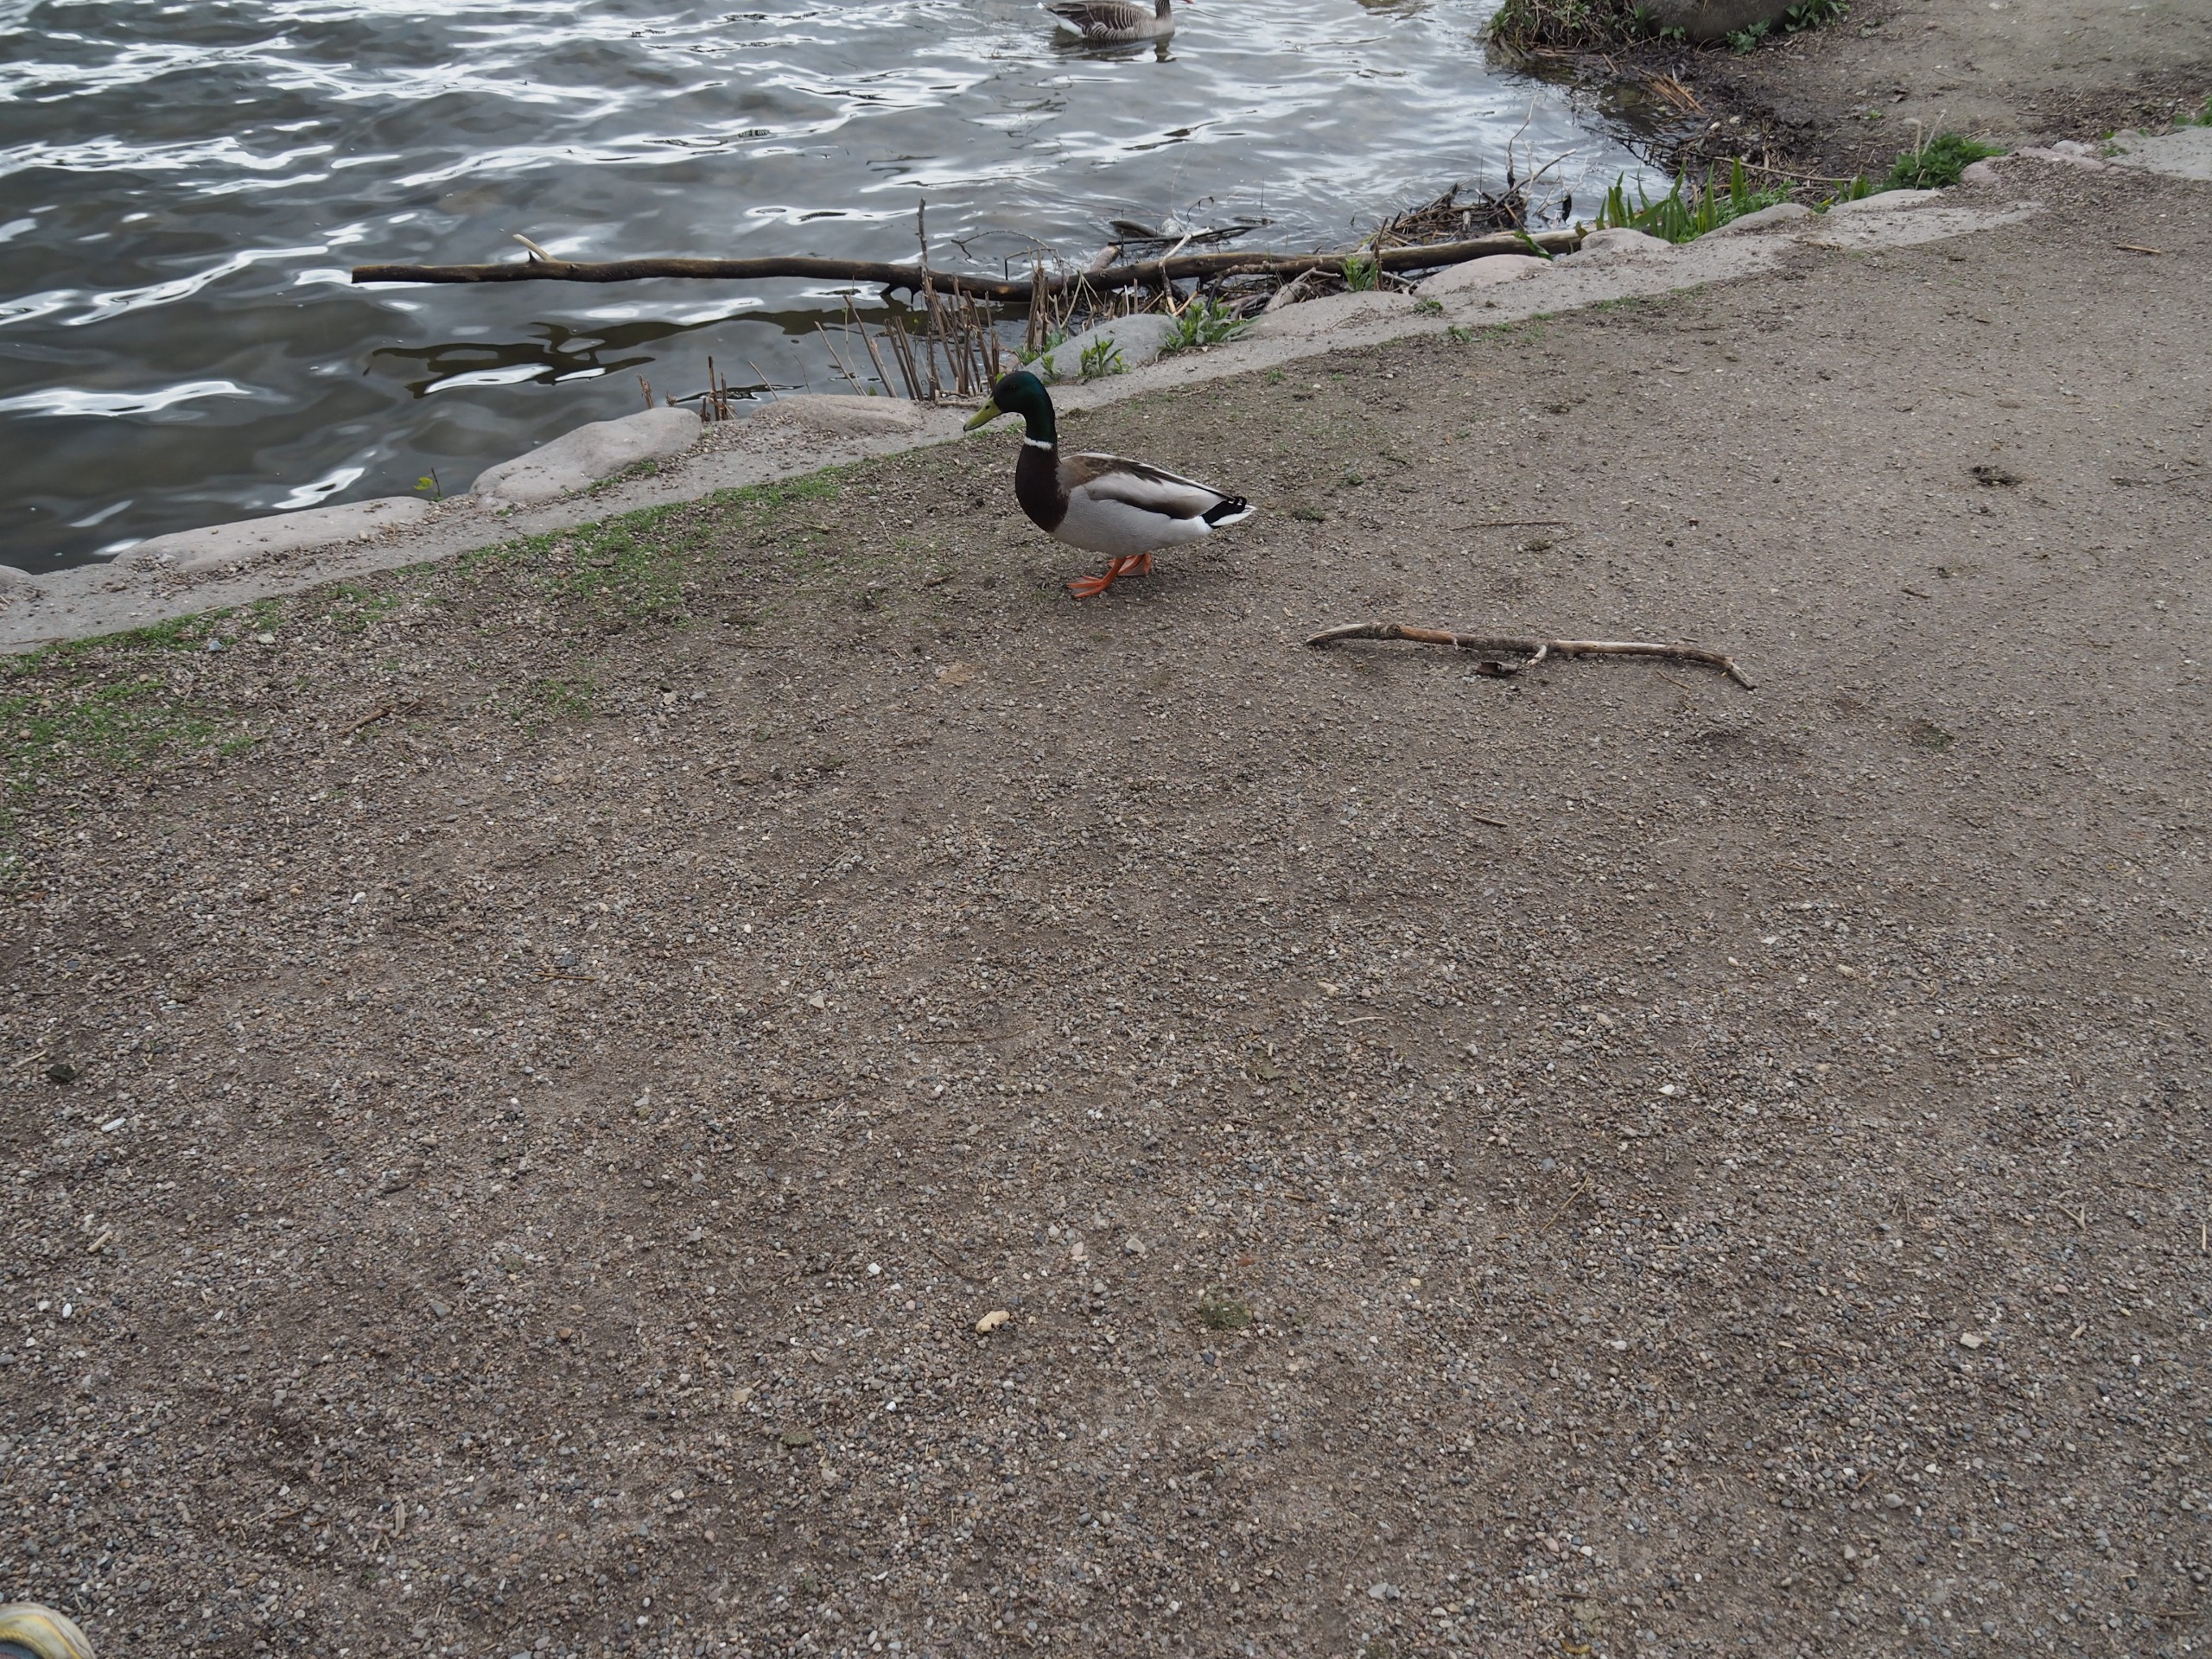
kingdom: Animalia
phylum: Chordata
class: Aves
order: Anseriformes
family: Anatidae
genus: Anas
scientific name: Anas platyrhynchos
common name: Gråand
